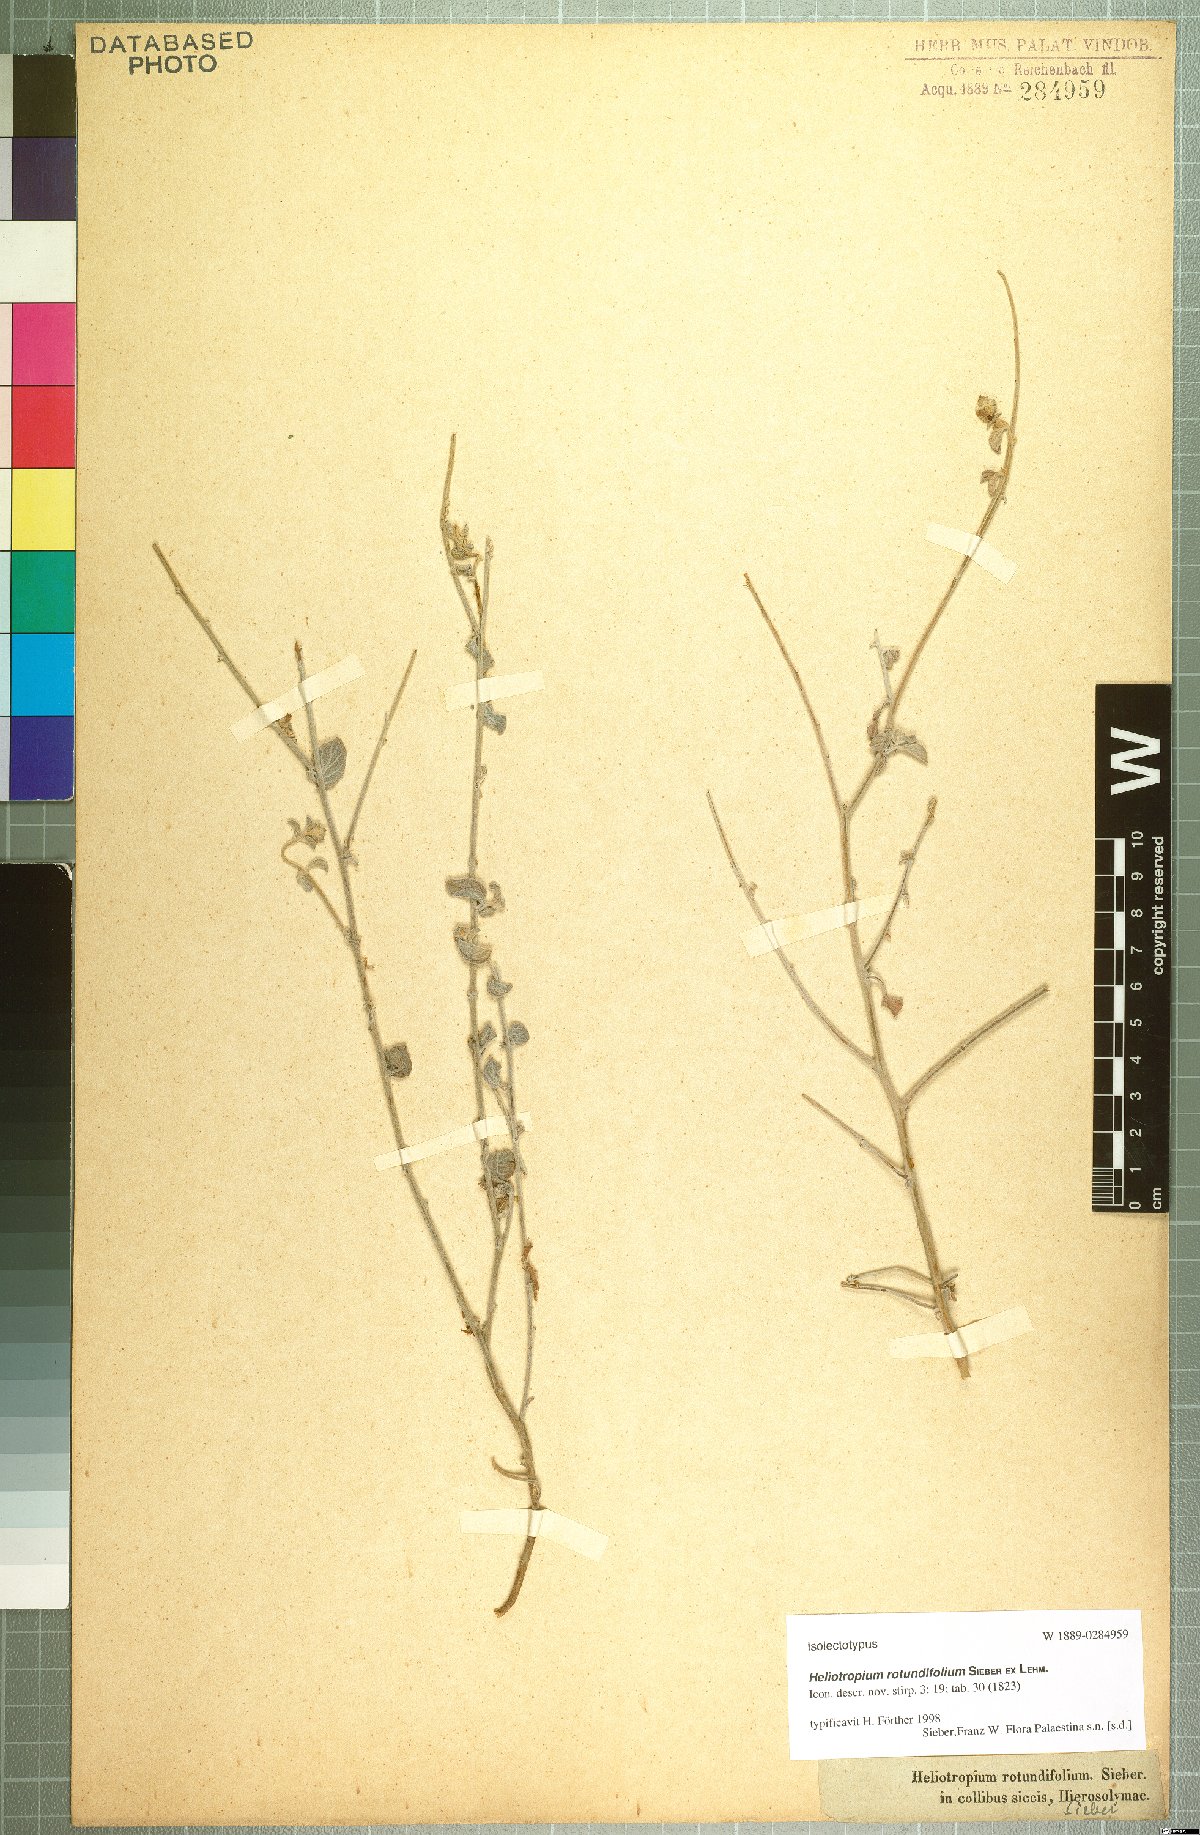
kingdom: Plantae
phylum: Tracheophyta
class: Magnoliopsida
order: Boraginales
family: Heliotropiaceae
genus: Heliotropium
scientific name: Heliotropium rotundifolium
